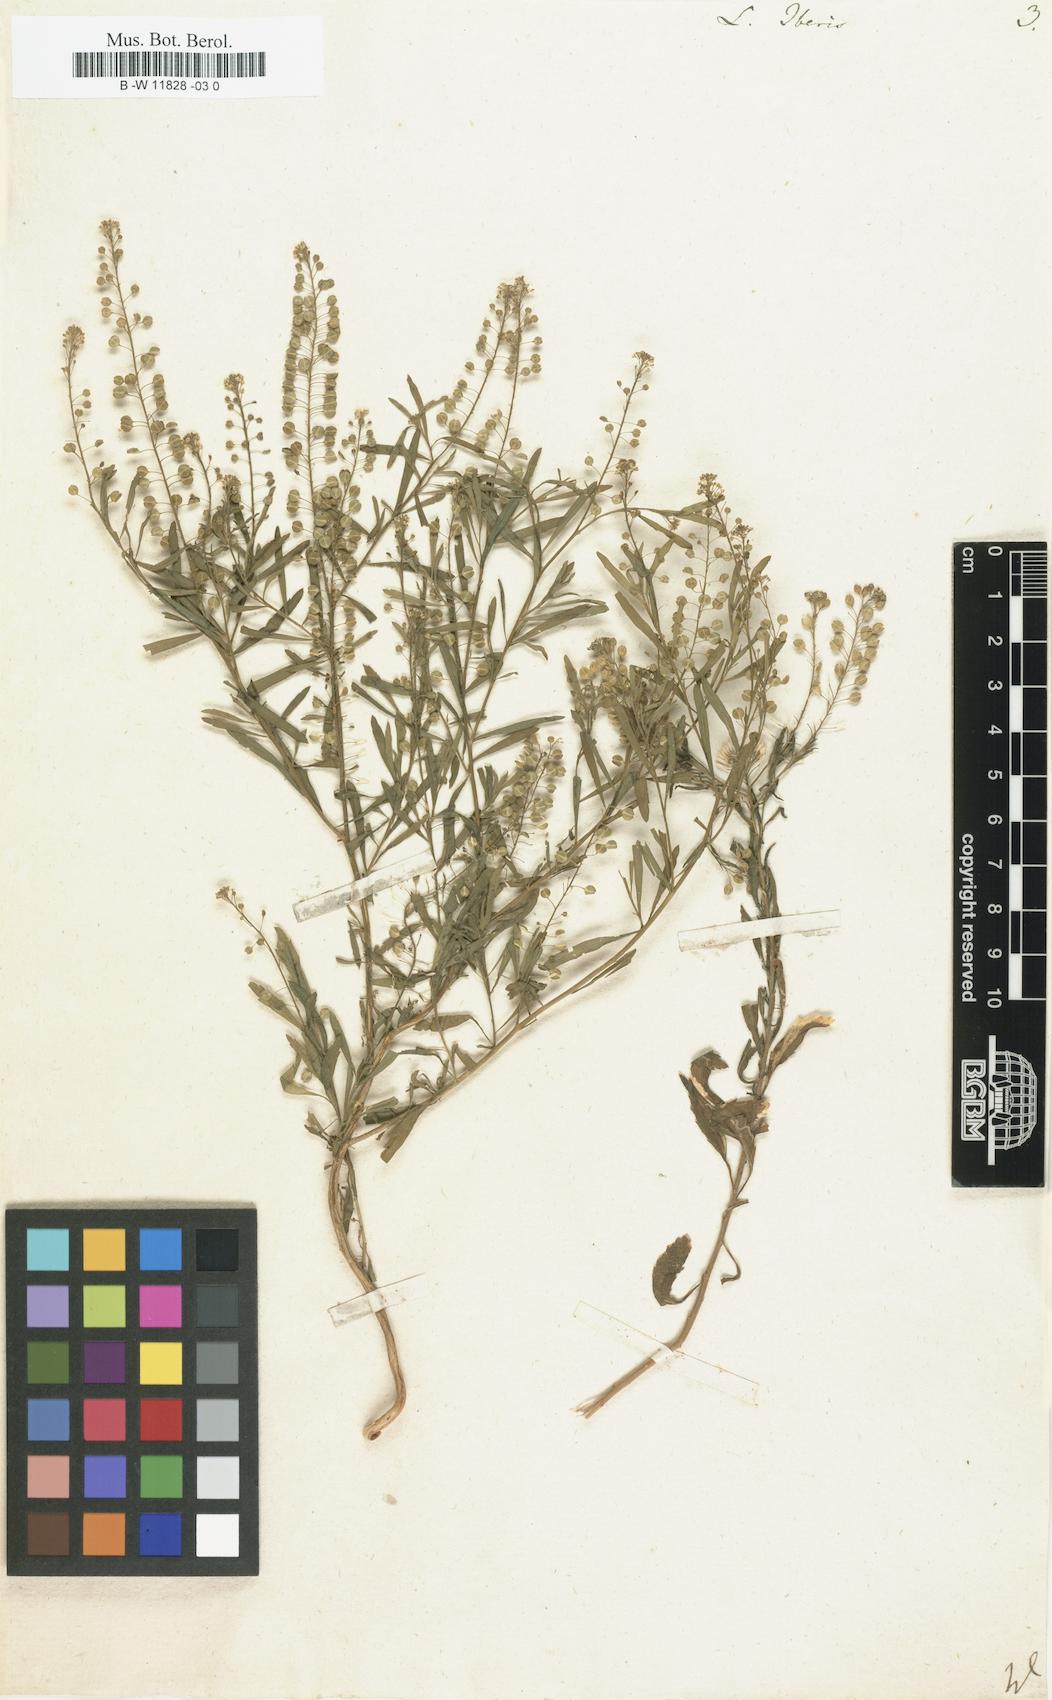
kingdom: Plantae
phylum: Tracheophyta
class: Magnoliopsida
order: Brassicales
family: Brassicaceae
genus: Lepidium
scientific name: Lepidium graminifolium
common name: Tall pepperwort
